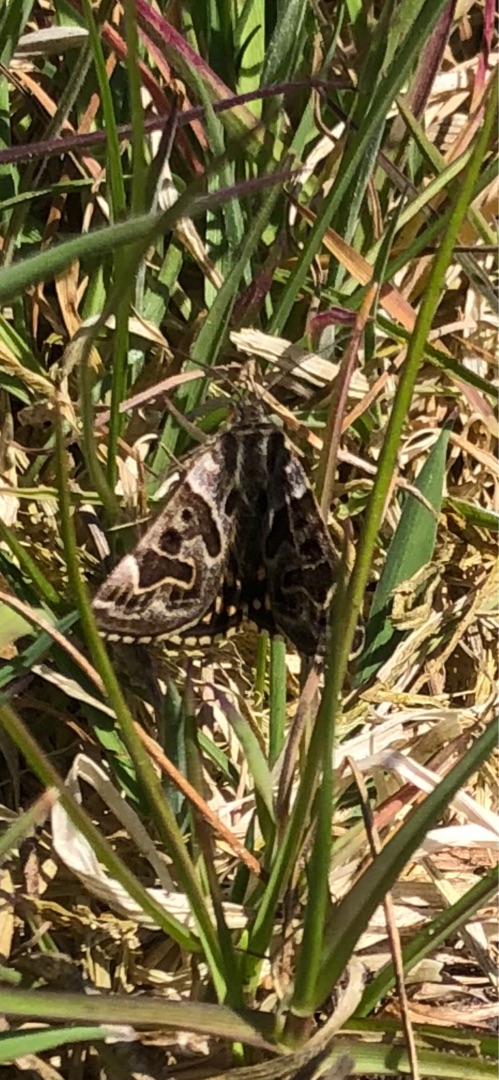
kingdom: Animalia
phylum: Arthropoda
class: Insecta
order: Lepidoptera
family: Erebidae
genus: Callistege
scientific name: Callistege mi
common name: Marmoreret kløverugle
